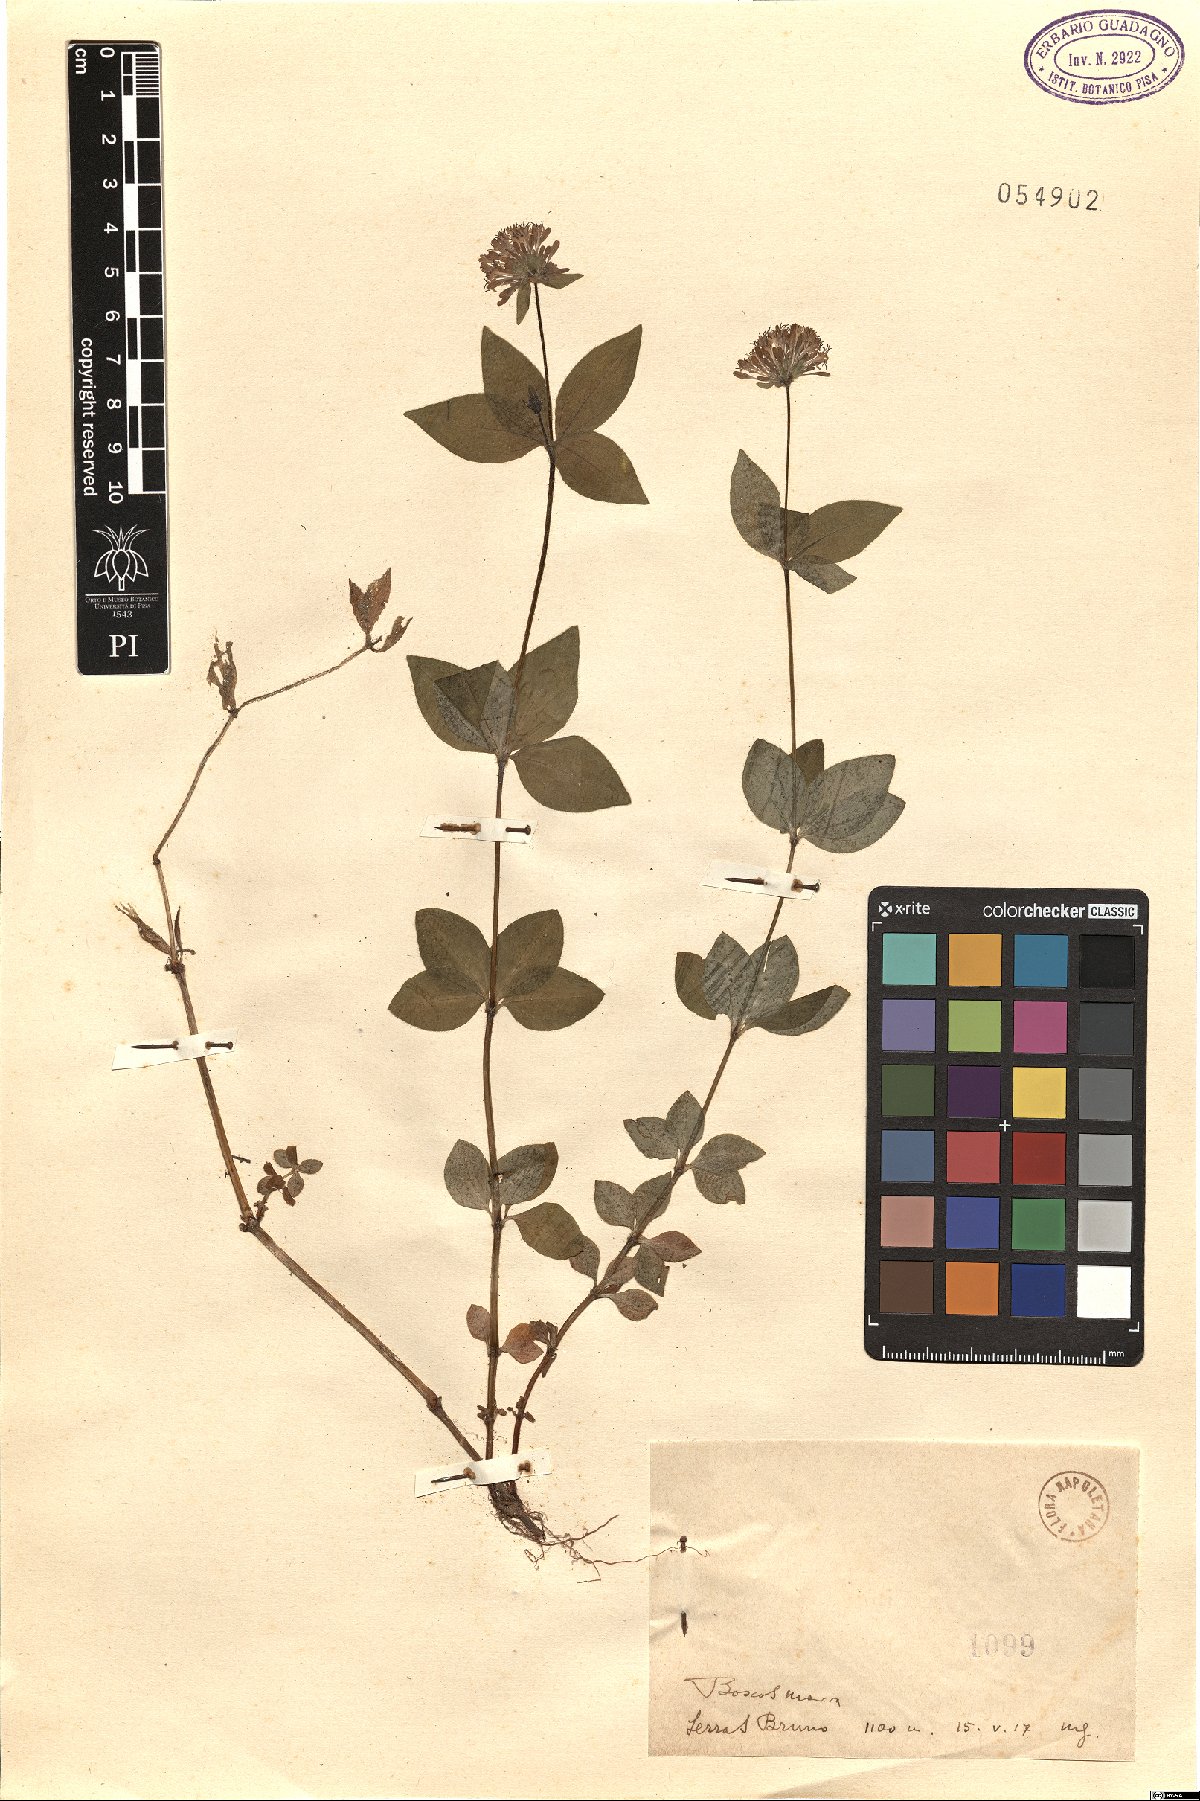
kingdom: Plantae
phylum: Tracheophyta
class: Magnoliopsida
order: Gentianales
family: Rubiaceae
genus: Asperula
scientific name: Asperula
